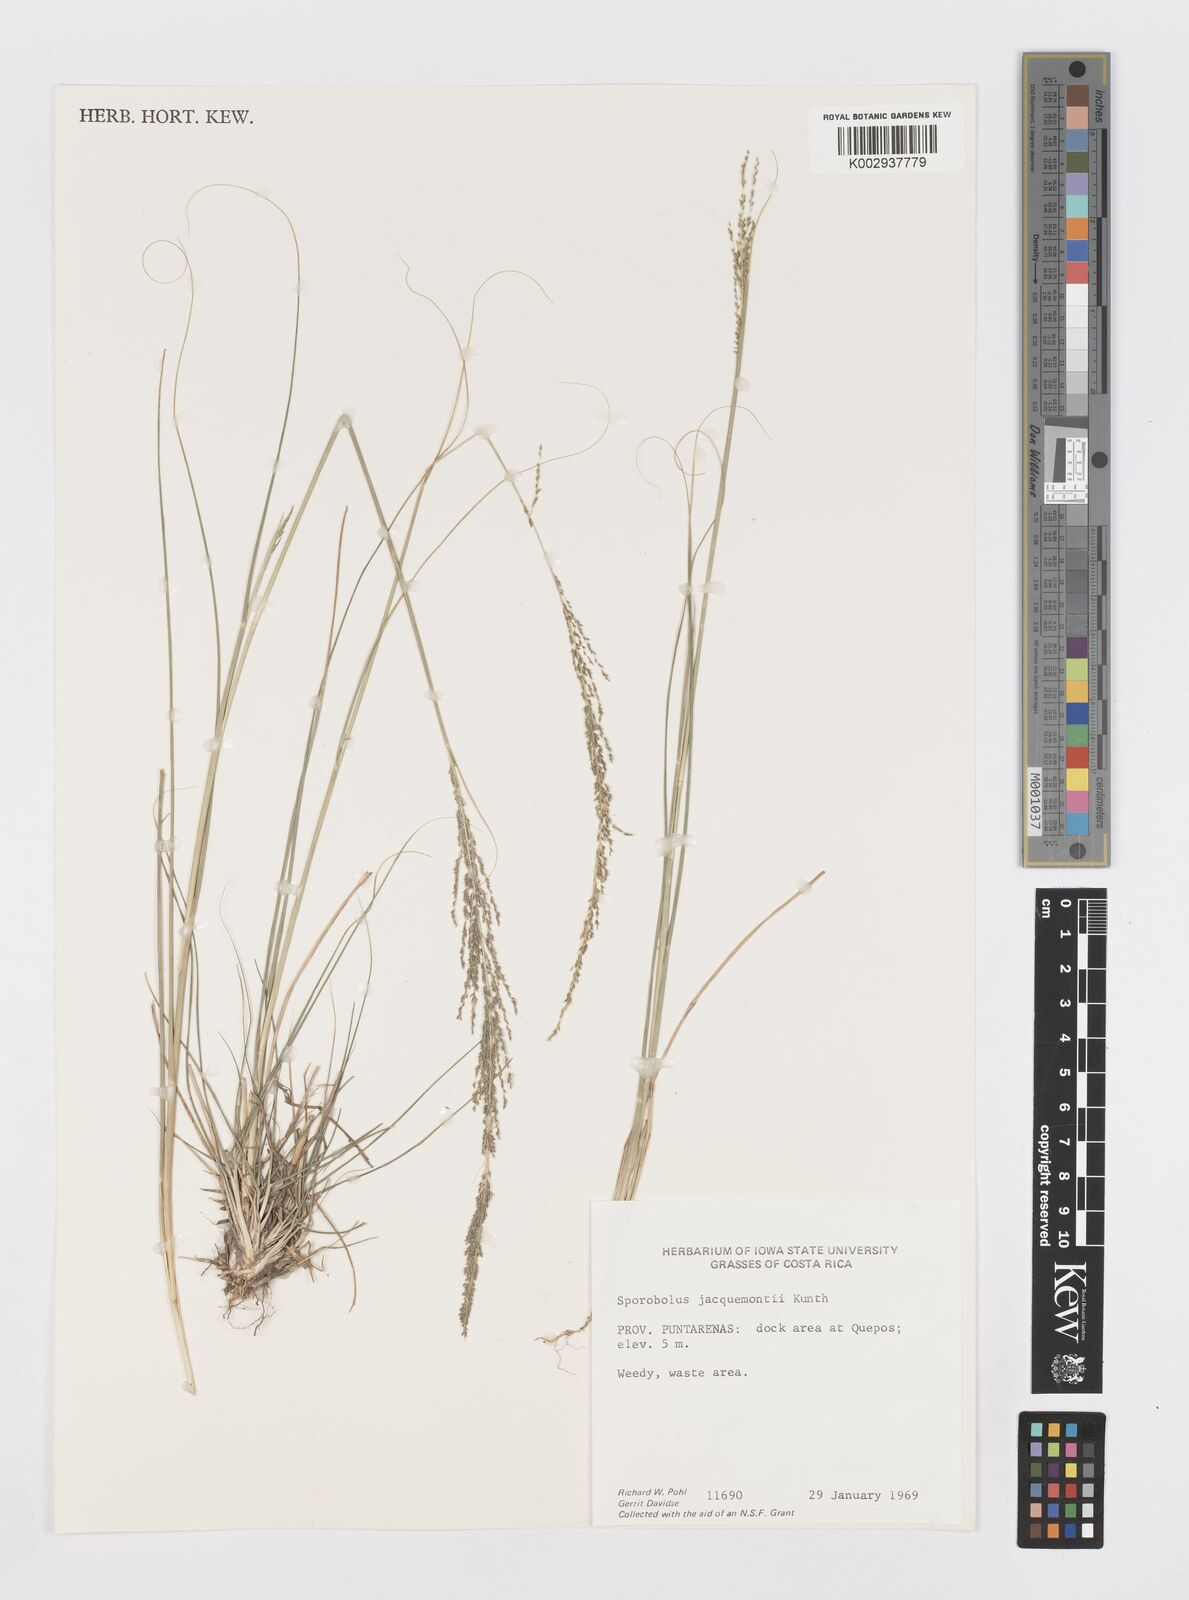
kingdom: Plantae
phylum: Tracheophyta
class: Liliopsida
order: Poales
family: Poaceae
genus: Sporobolus
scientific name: Sporobolus pyramidalis
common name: West indian dropseed
